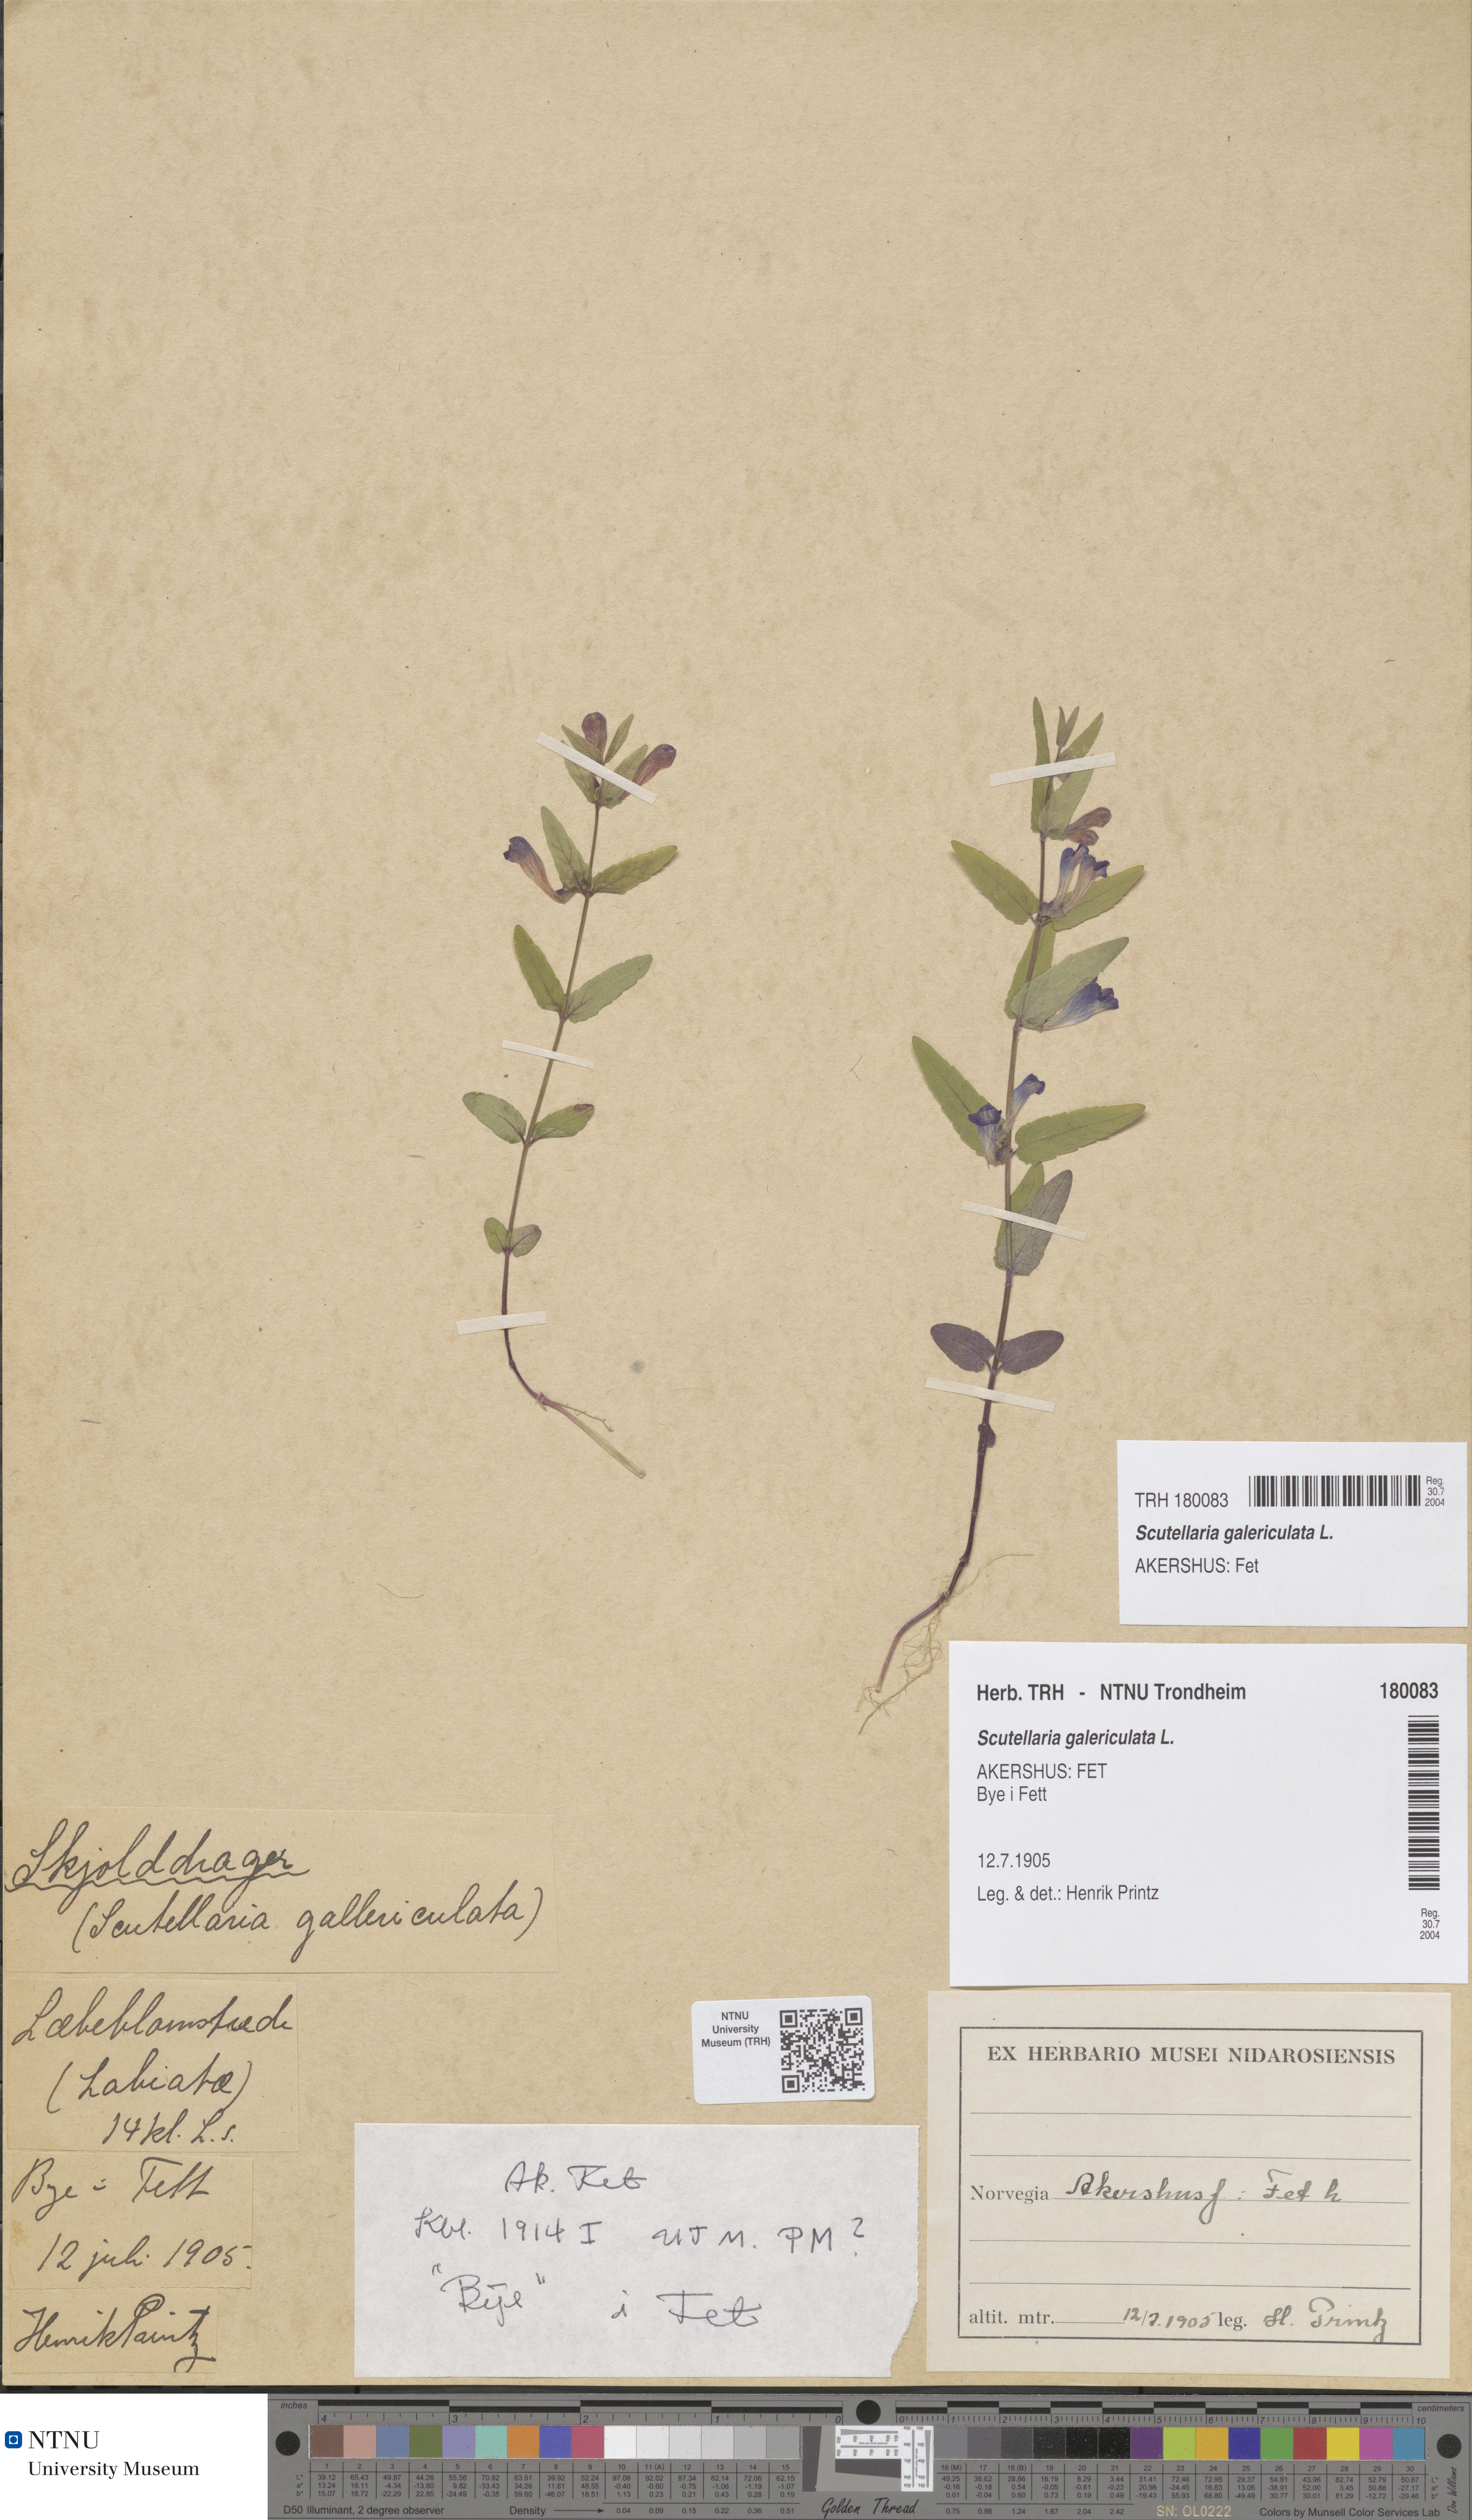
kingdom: Plantae
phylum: Tracheophyta
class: Magnoliopsida
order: Lamiales
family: Lamiaceae
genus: Scutellaria
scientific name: Scutellaria galericulata
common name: Skullcap
